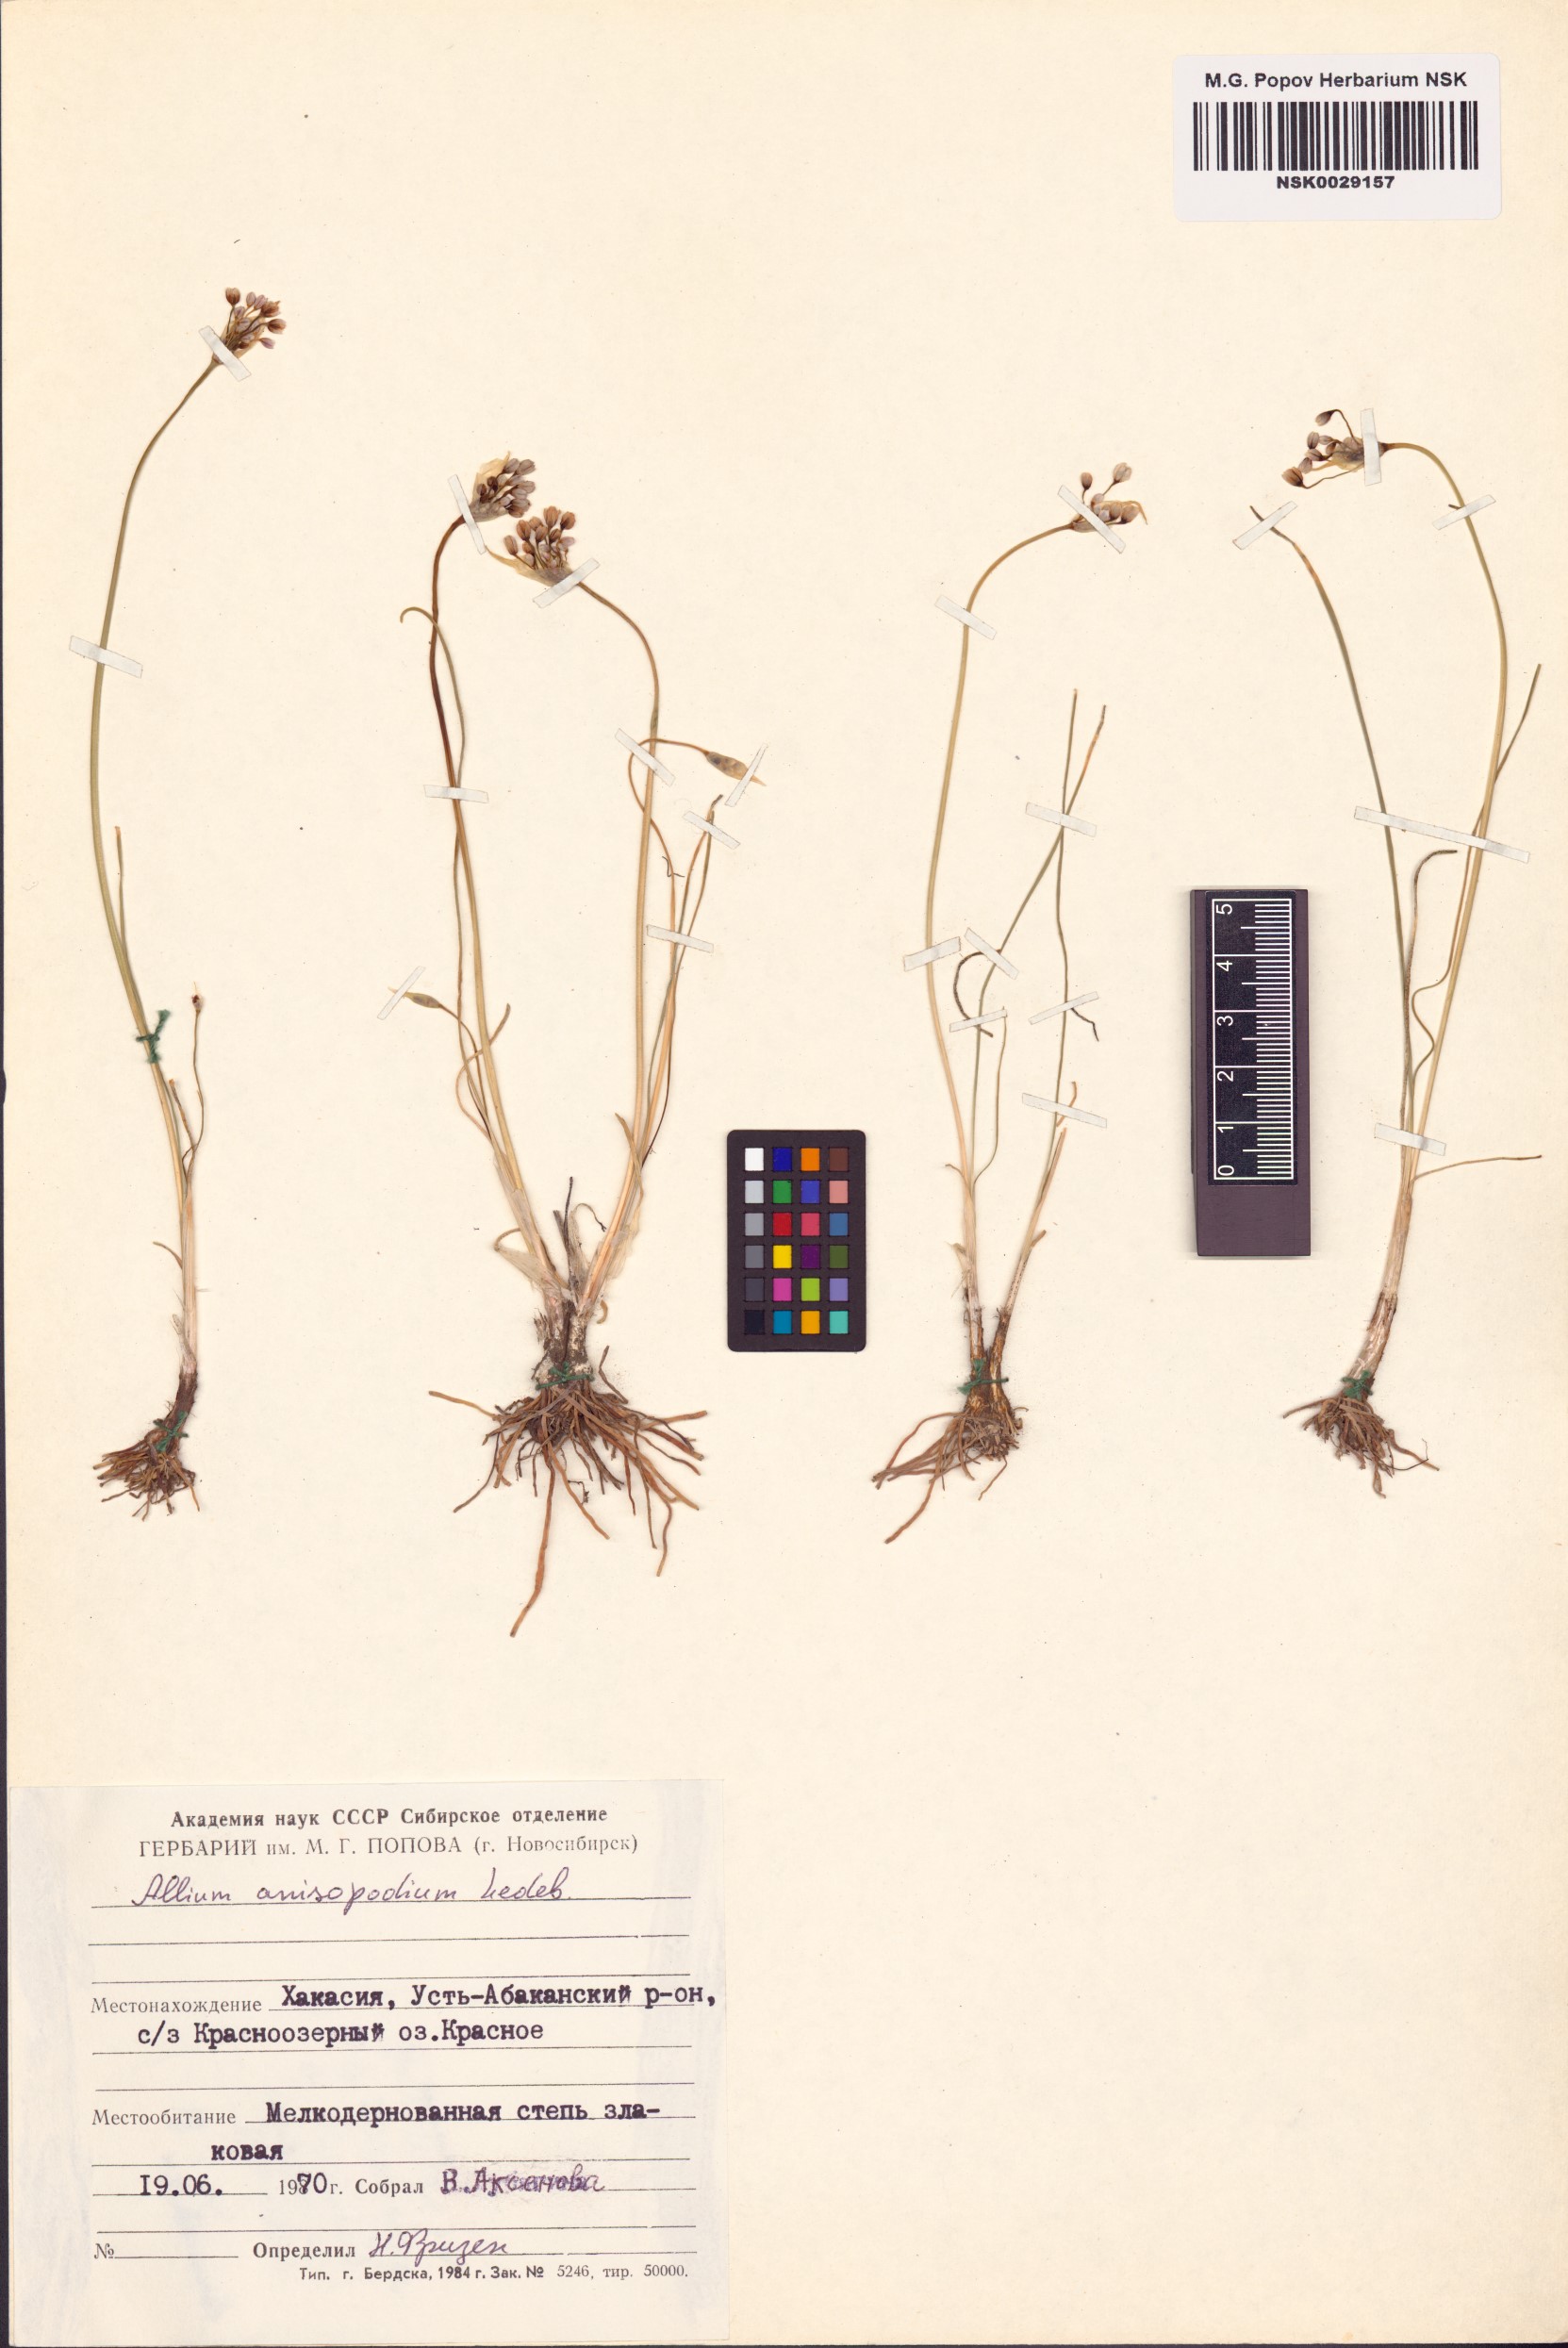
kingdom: Plantae
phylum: Tracheophyta
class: Liliopsida
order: Asparagales
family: Amaryllidaceae
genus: Allium
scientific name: Allium anisopodium
